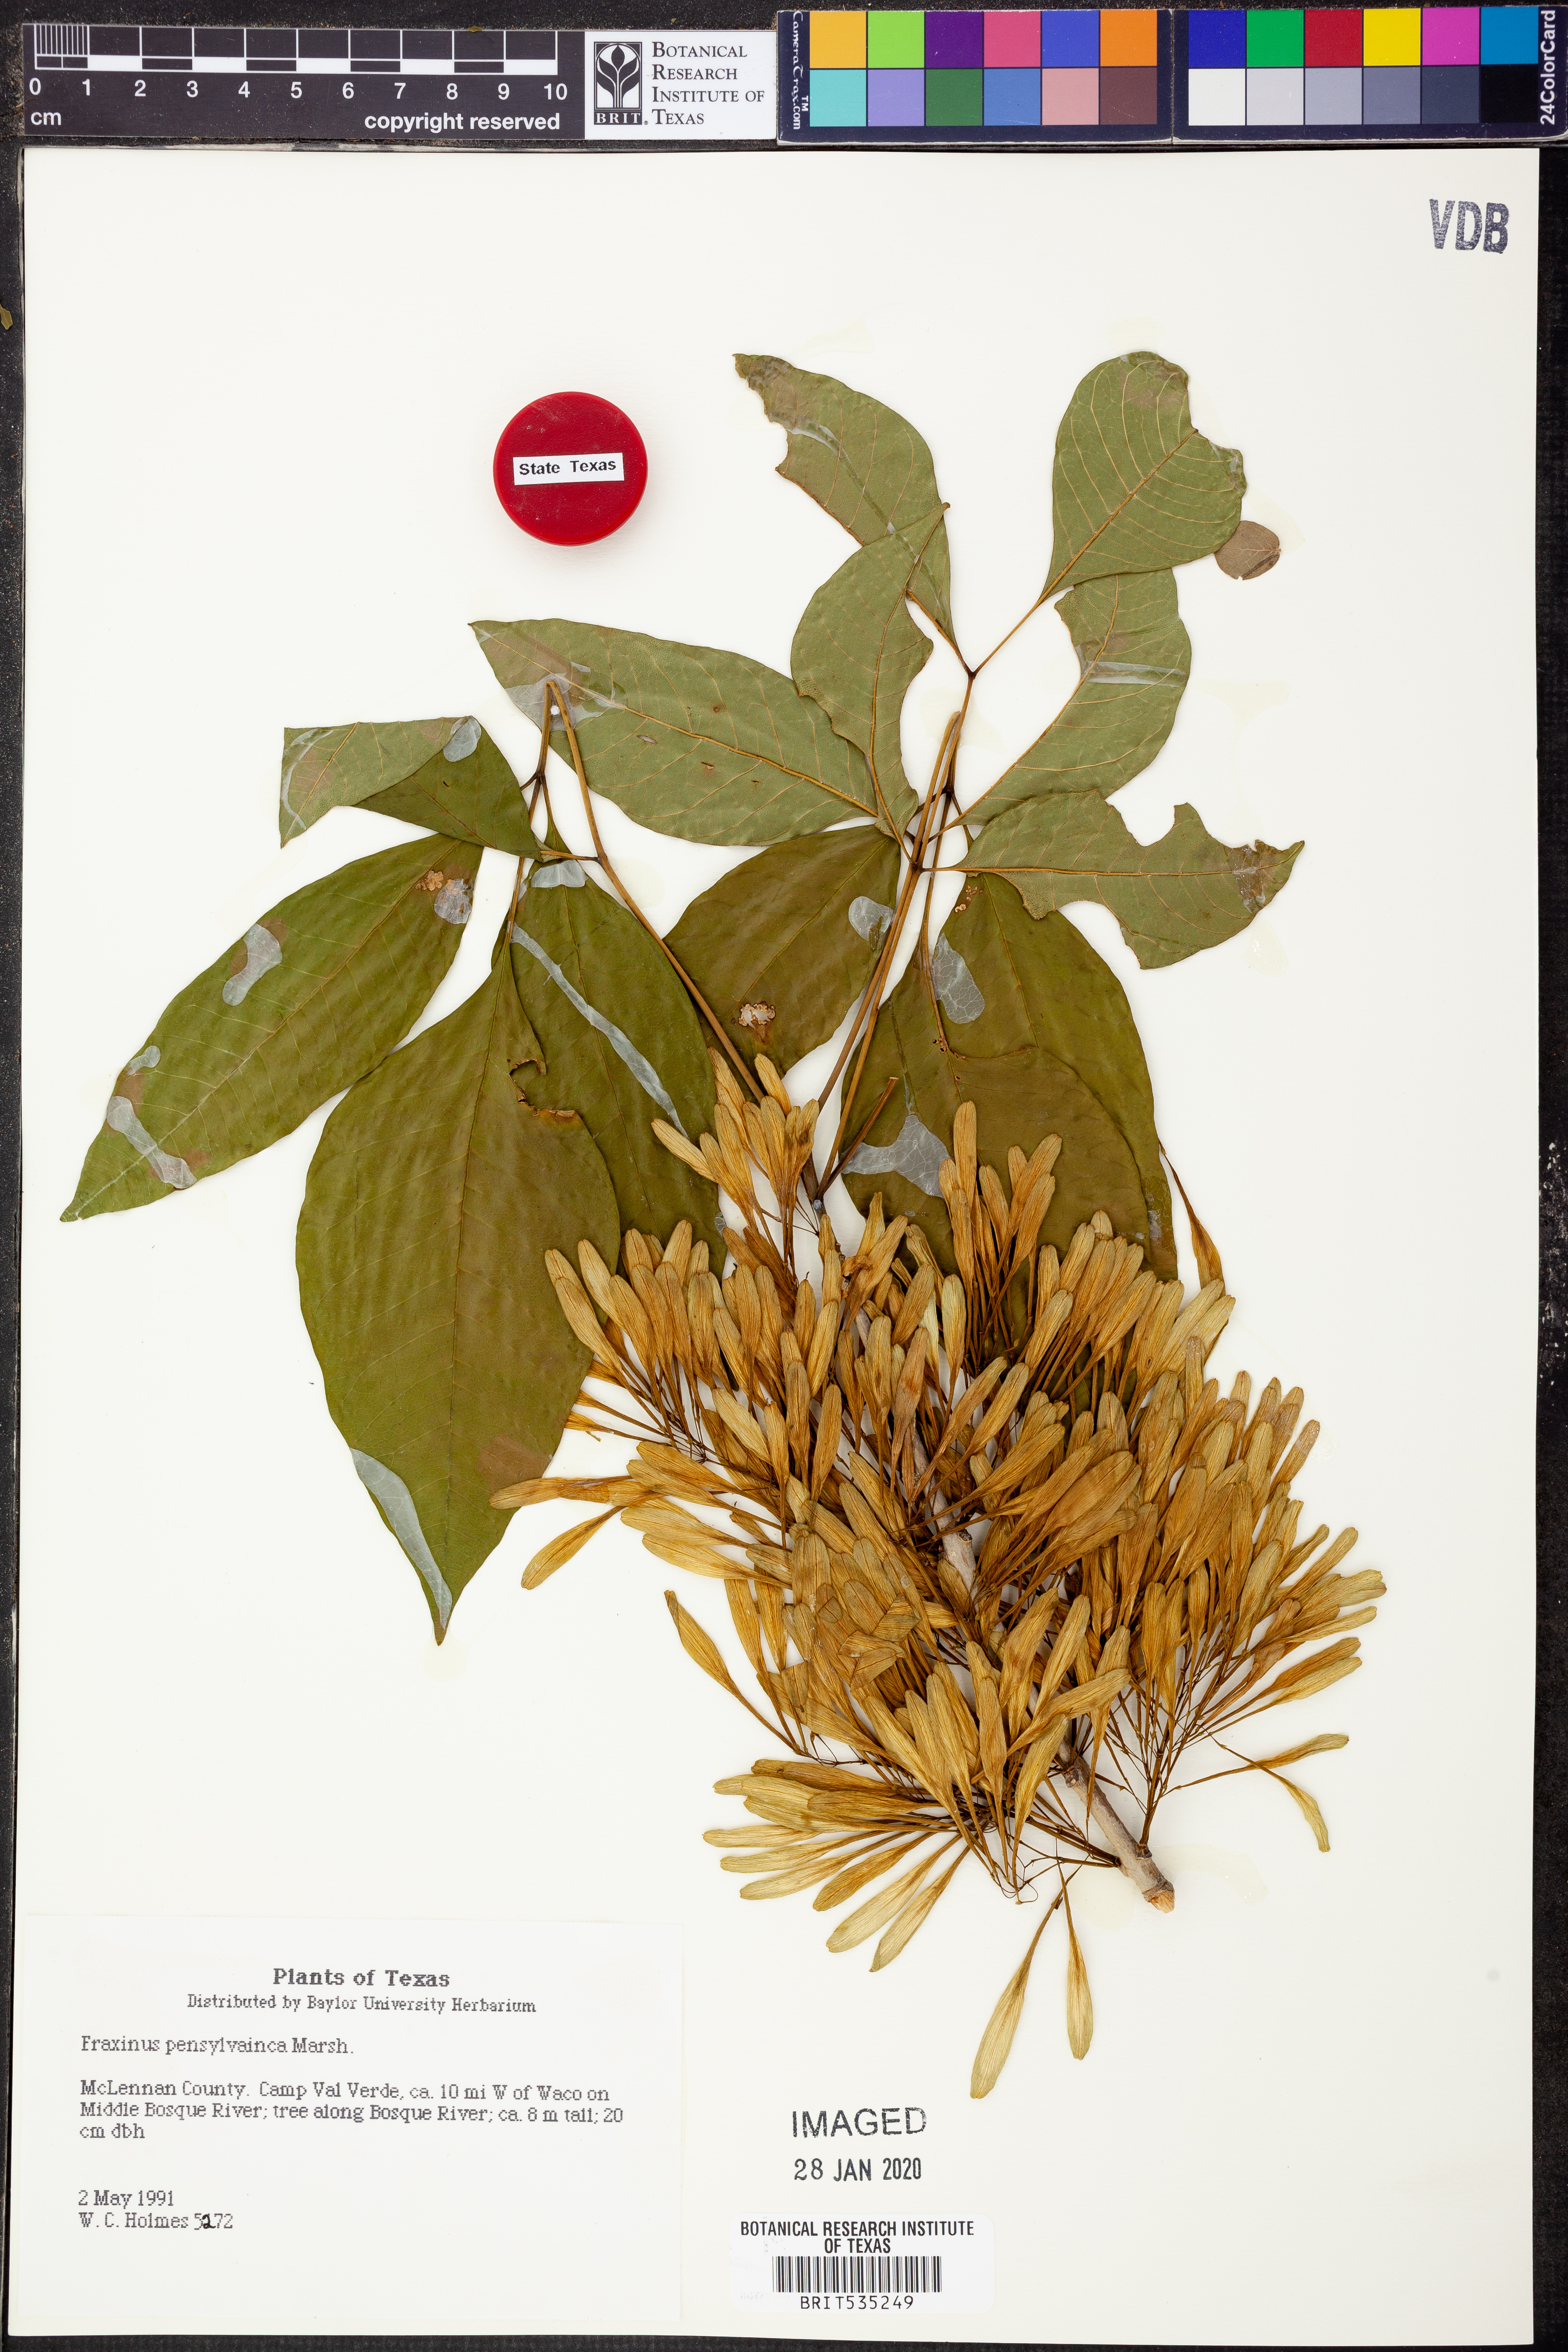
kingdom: Plantae
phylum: Tracheophyta
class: Magnoliopsida
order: Lamiales
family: Oleaceae
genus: Fraxinus
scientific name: Fraxinus pennsylvanica
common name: Green ash
